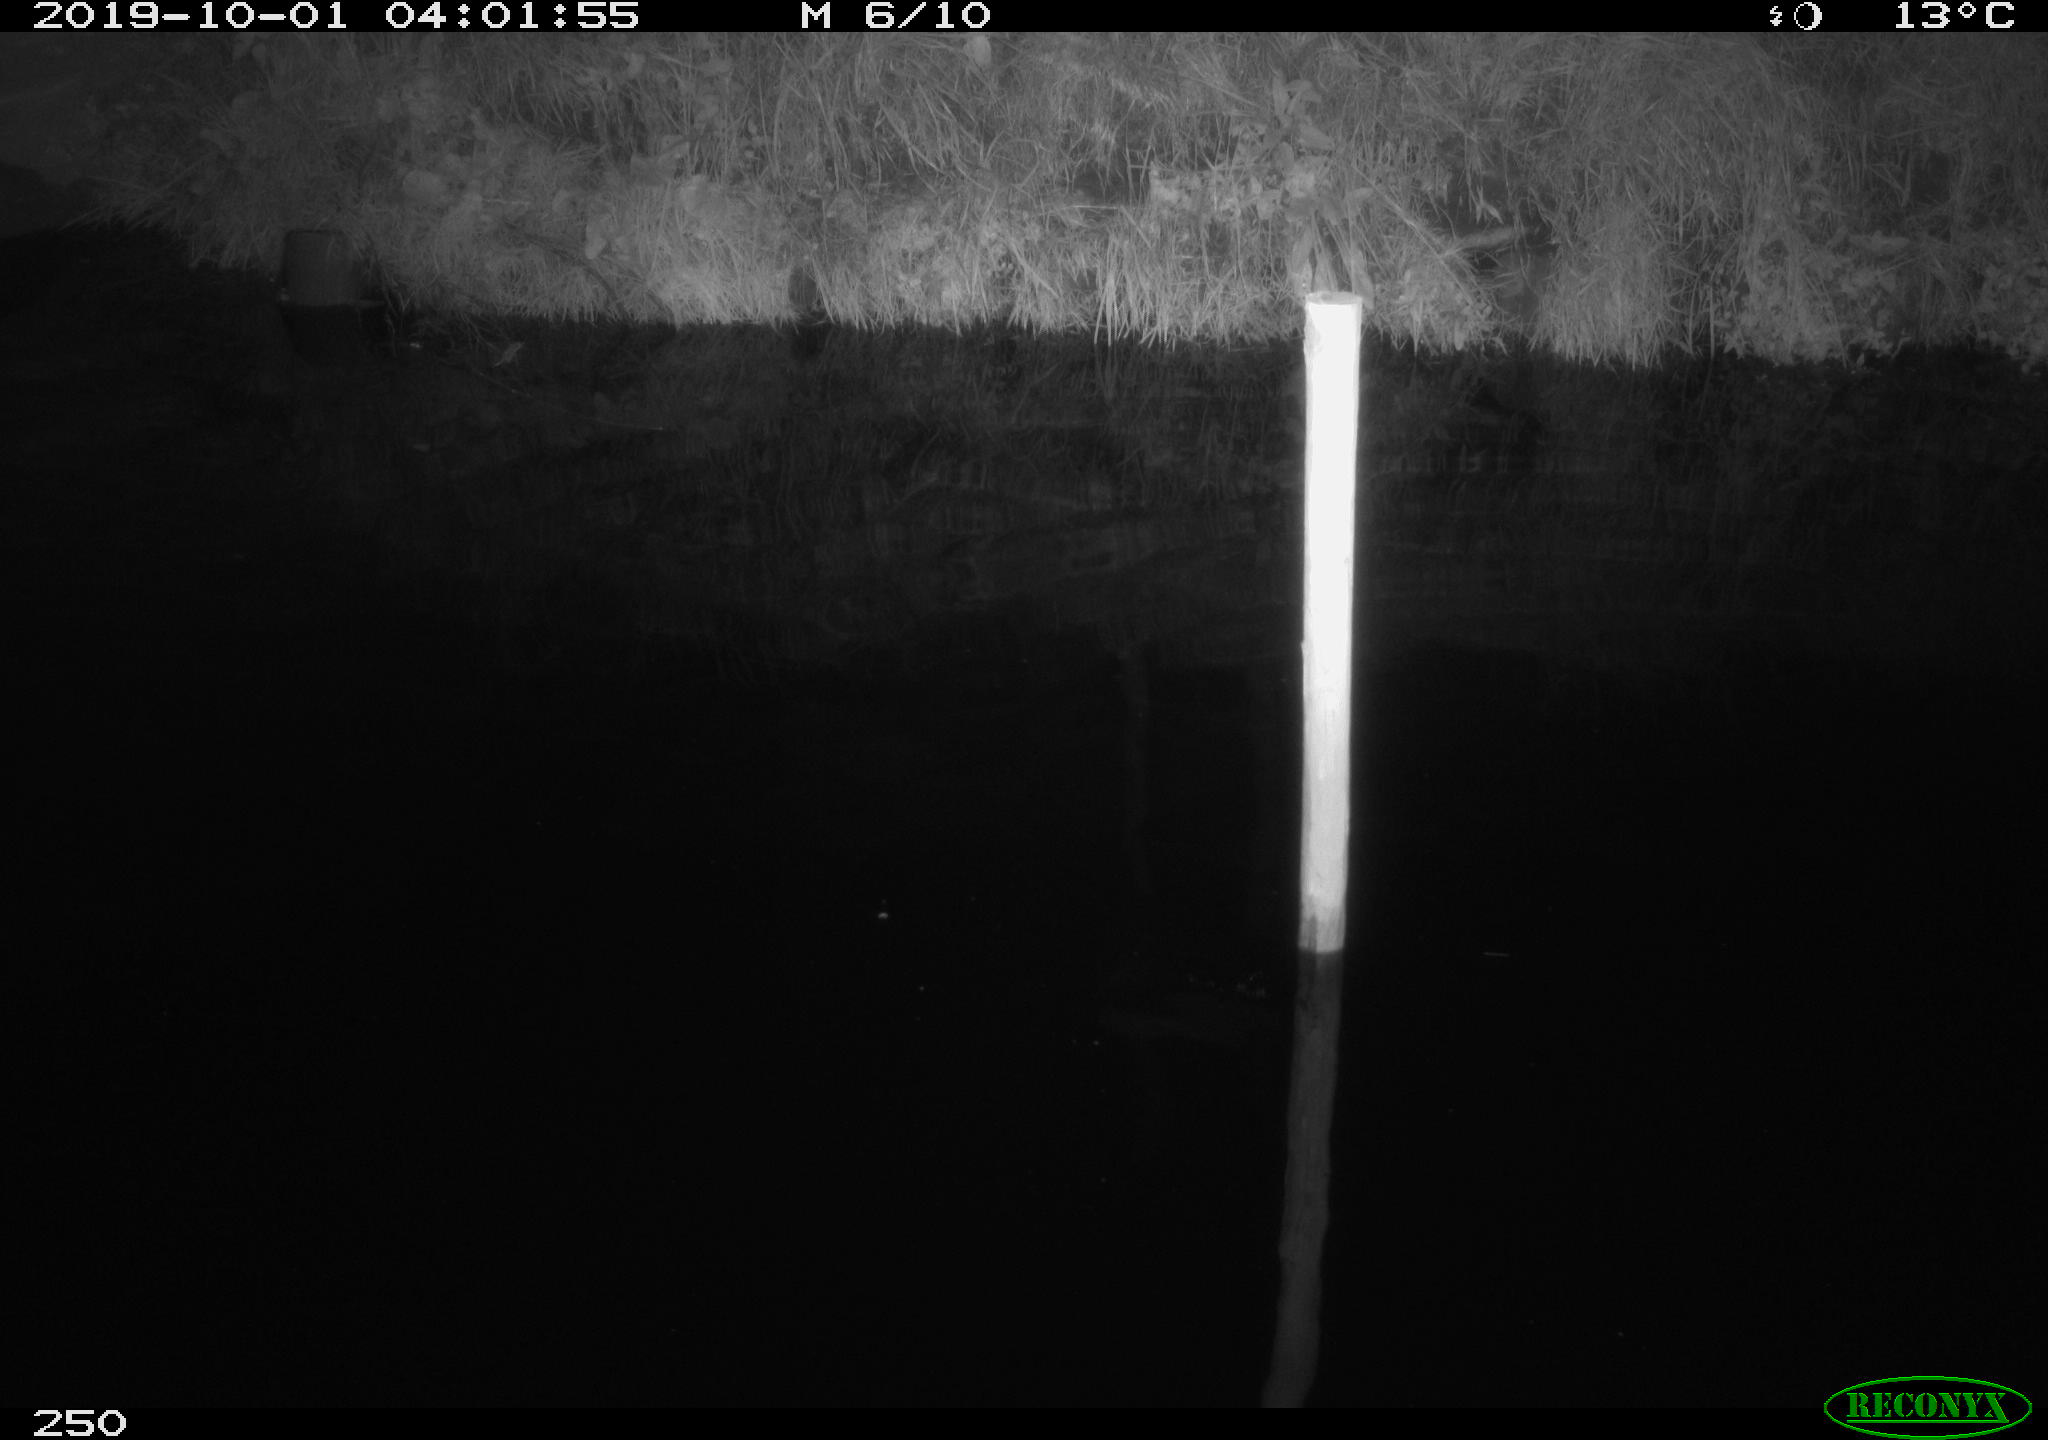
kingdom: Animalia
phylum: Chordata
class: Aves
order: Anseriformes
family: Anatidae
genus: Anas
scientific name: Anas platyrhynchos
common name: Mallard
